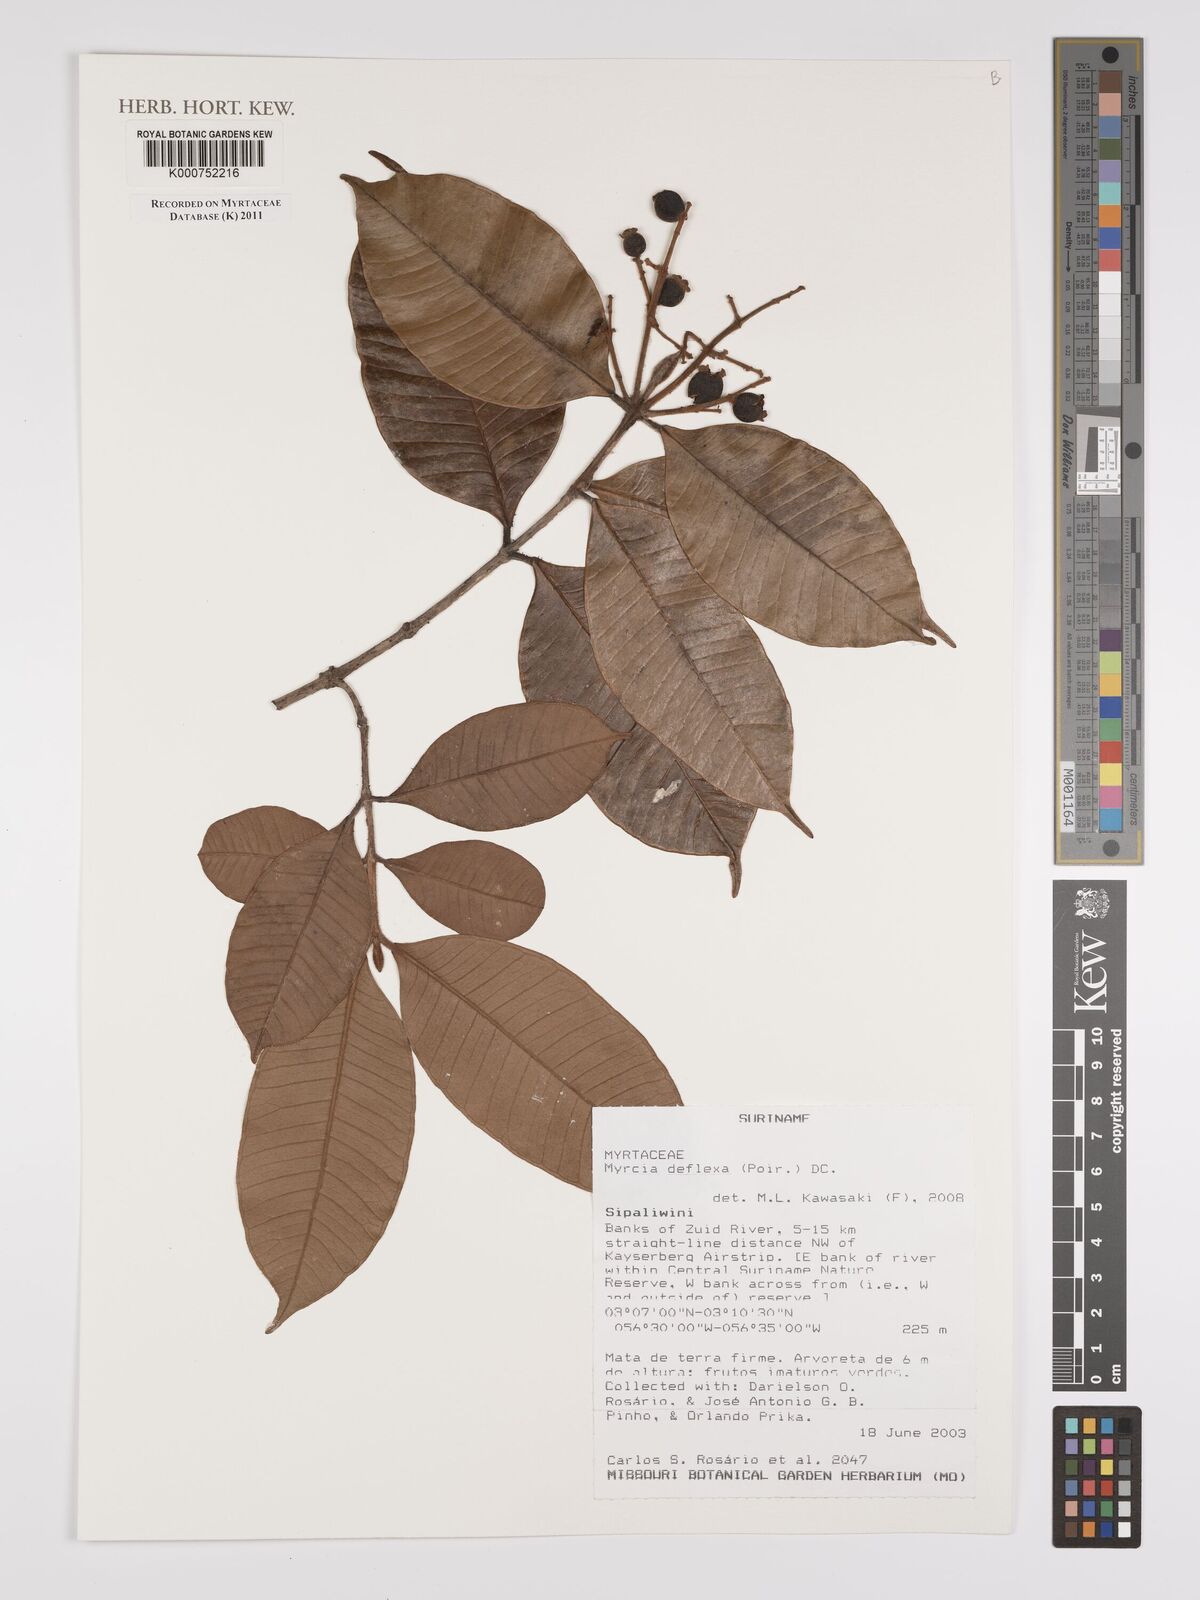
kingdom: Plantae
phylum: Tracheophyta
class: Magnoliopsida
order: Myrtales
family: Myrtaceae
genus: Myrcia
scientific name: Myrcia deflexa
